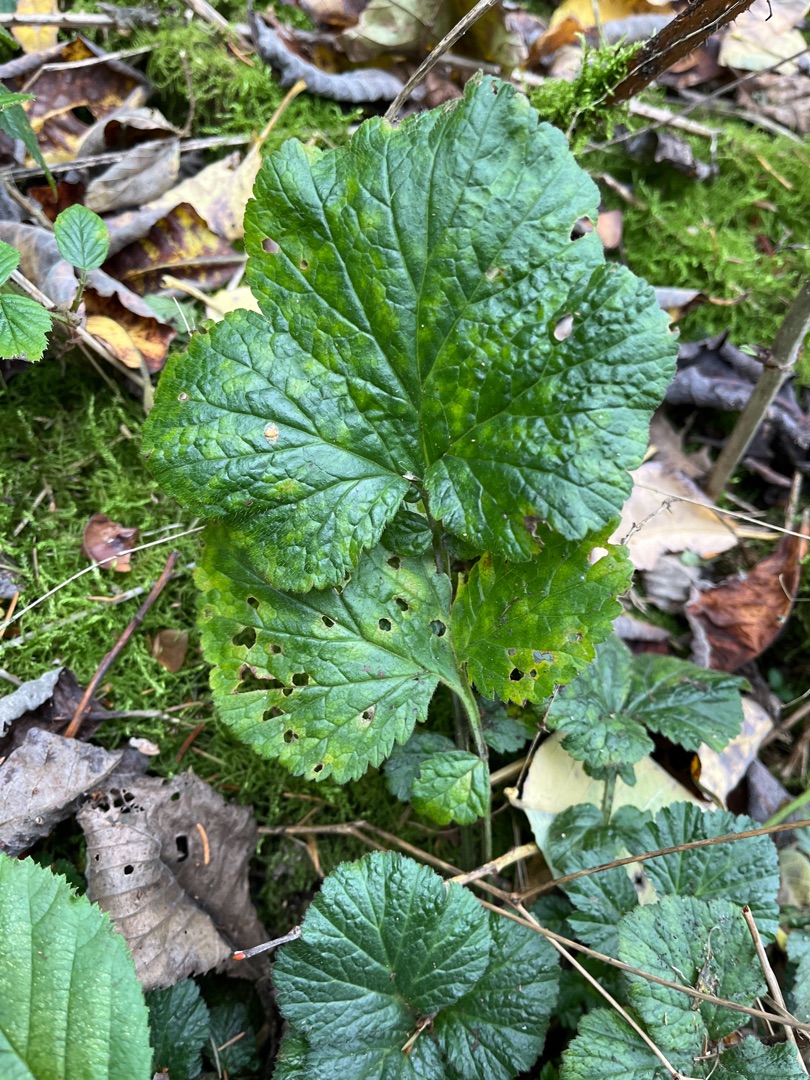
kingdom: Plantae
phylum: Tracheophyta
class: Magnoliopsida
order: Rosales
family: Rosaceae
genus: Geum
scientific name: Geum urbanum
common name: Feber-nellikerod
